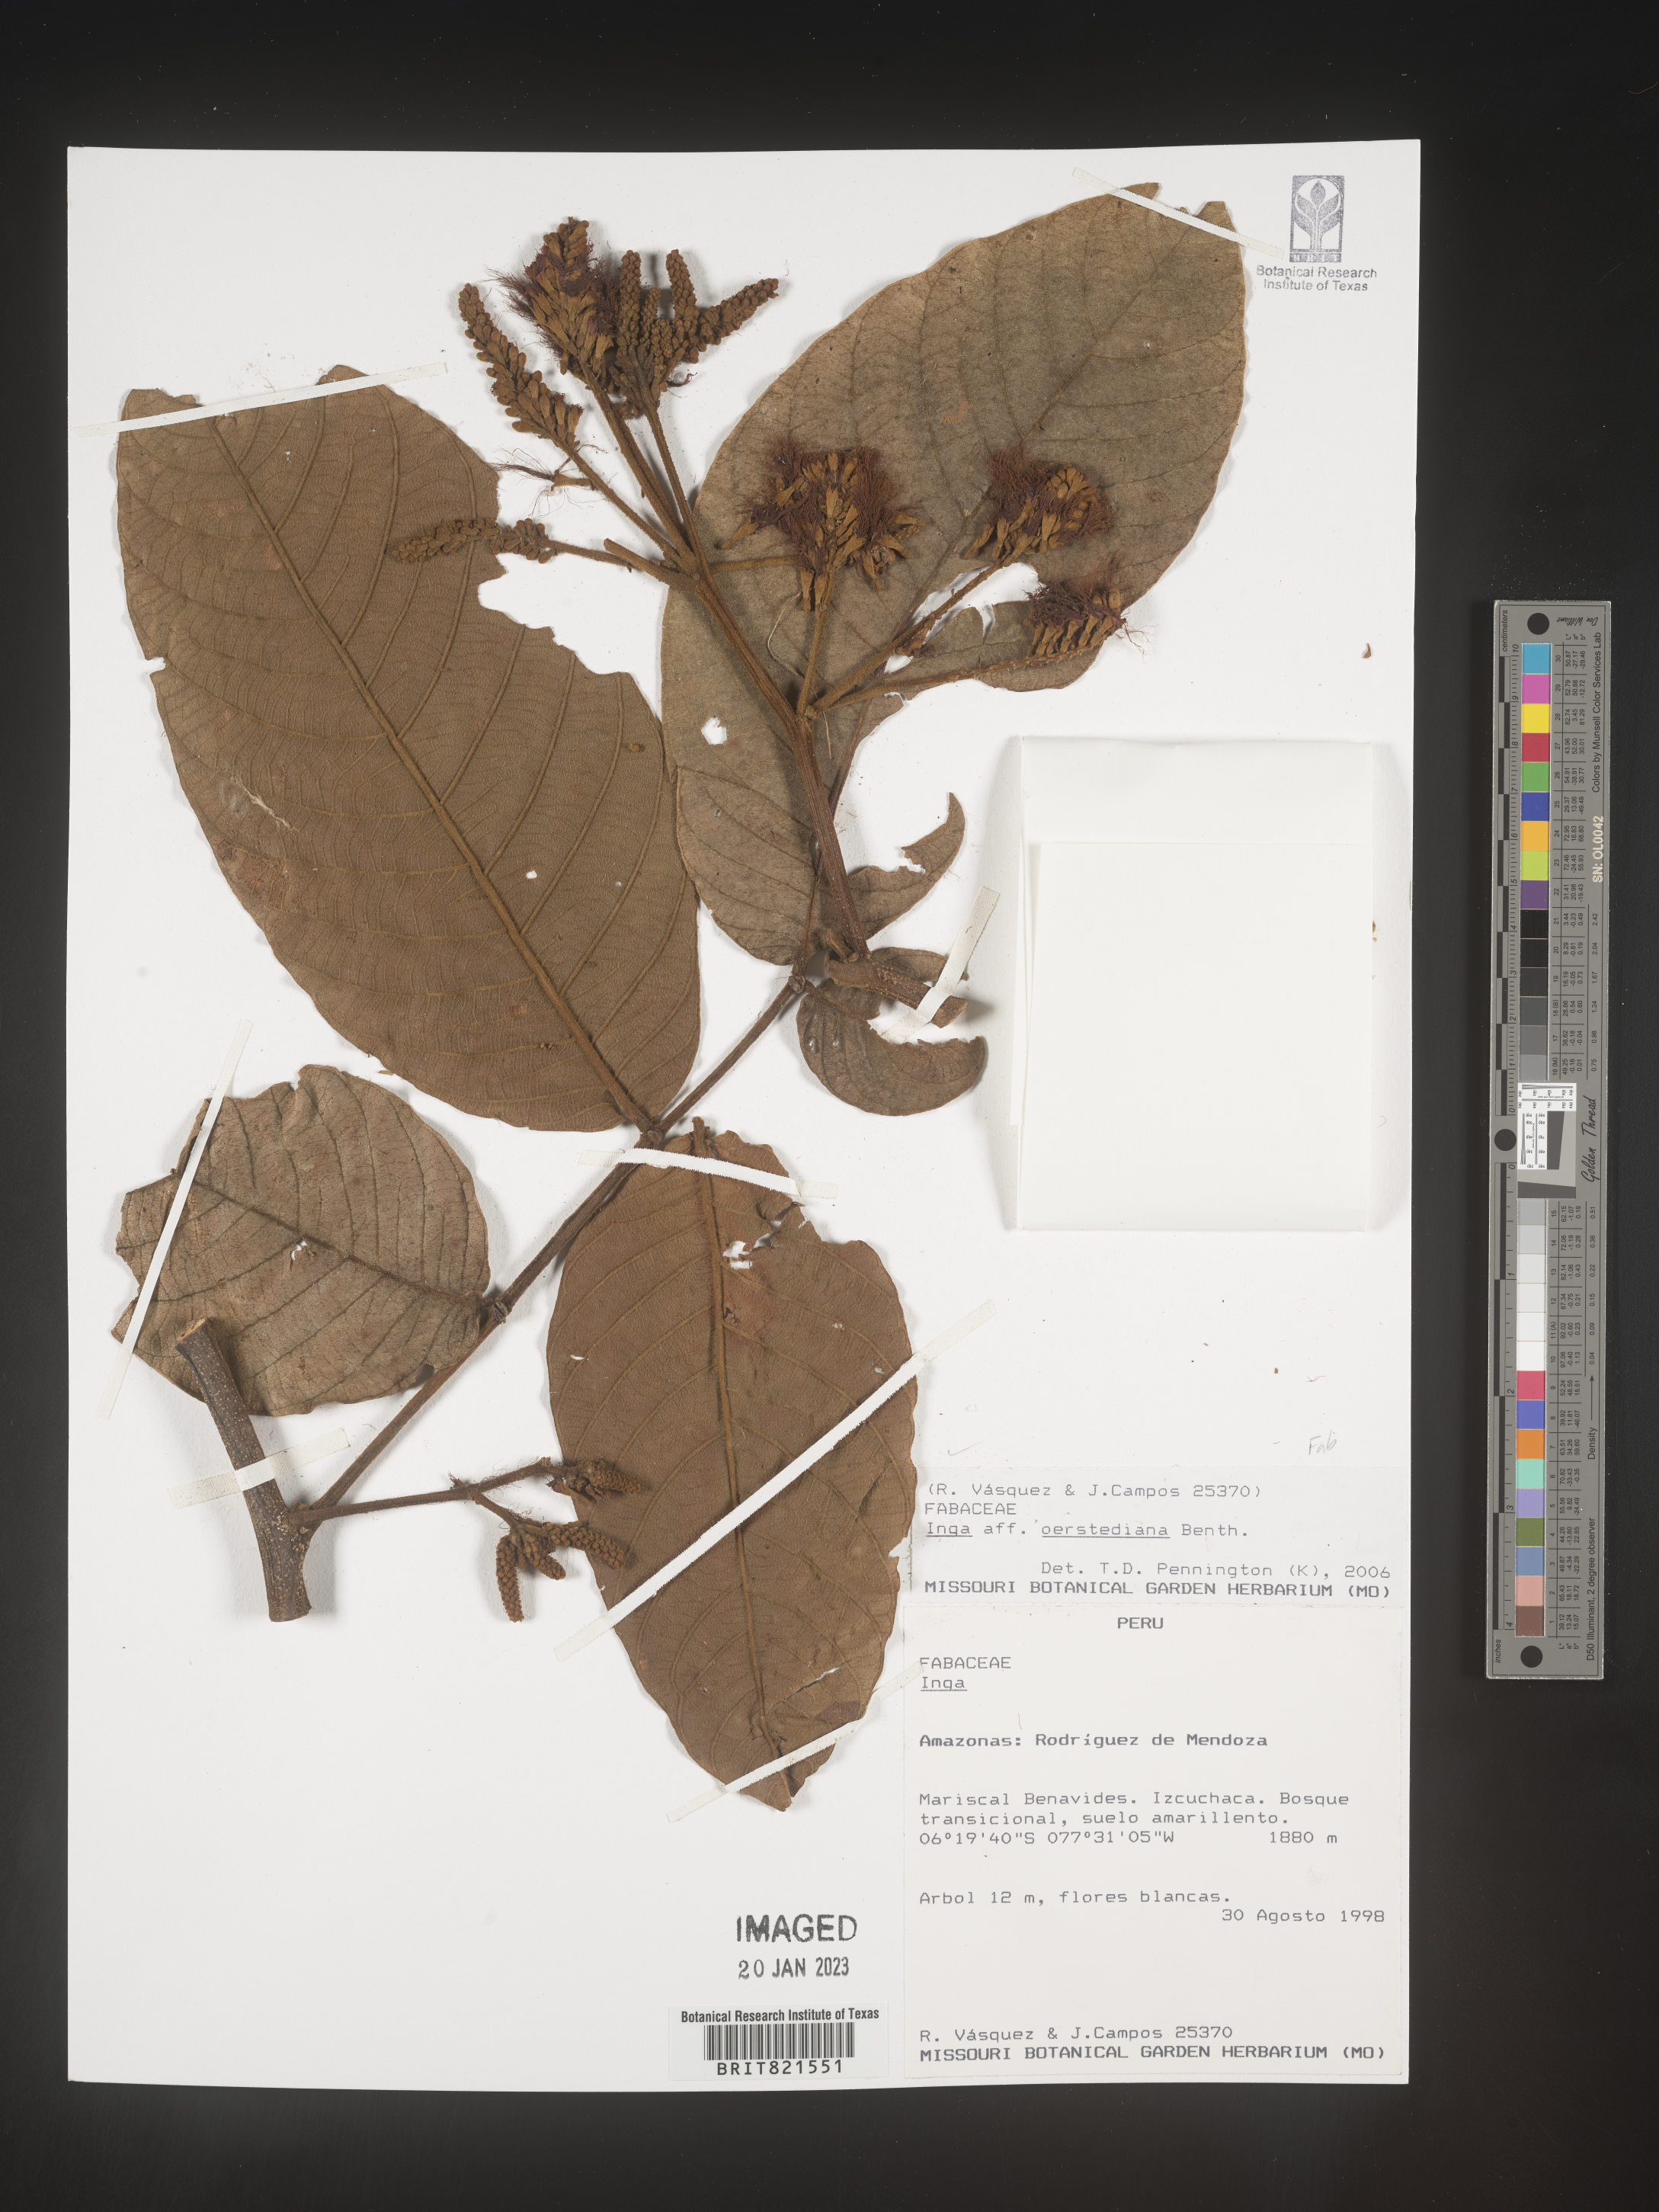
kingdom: Plantae
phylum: Tracheophyta
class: Magnoliopsida
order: Fabales
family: Fabaceae
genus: Inga
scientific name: Inga
